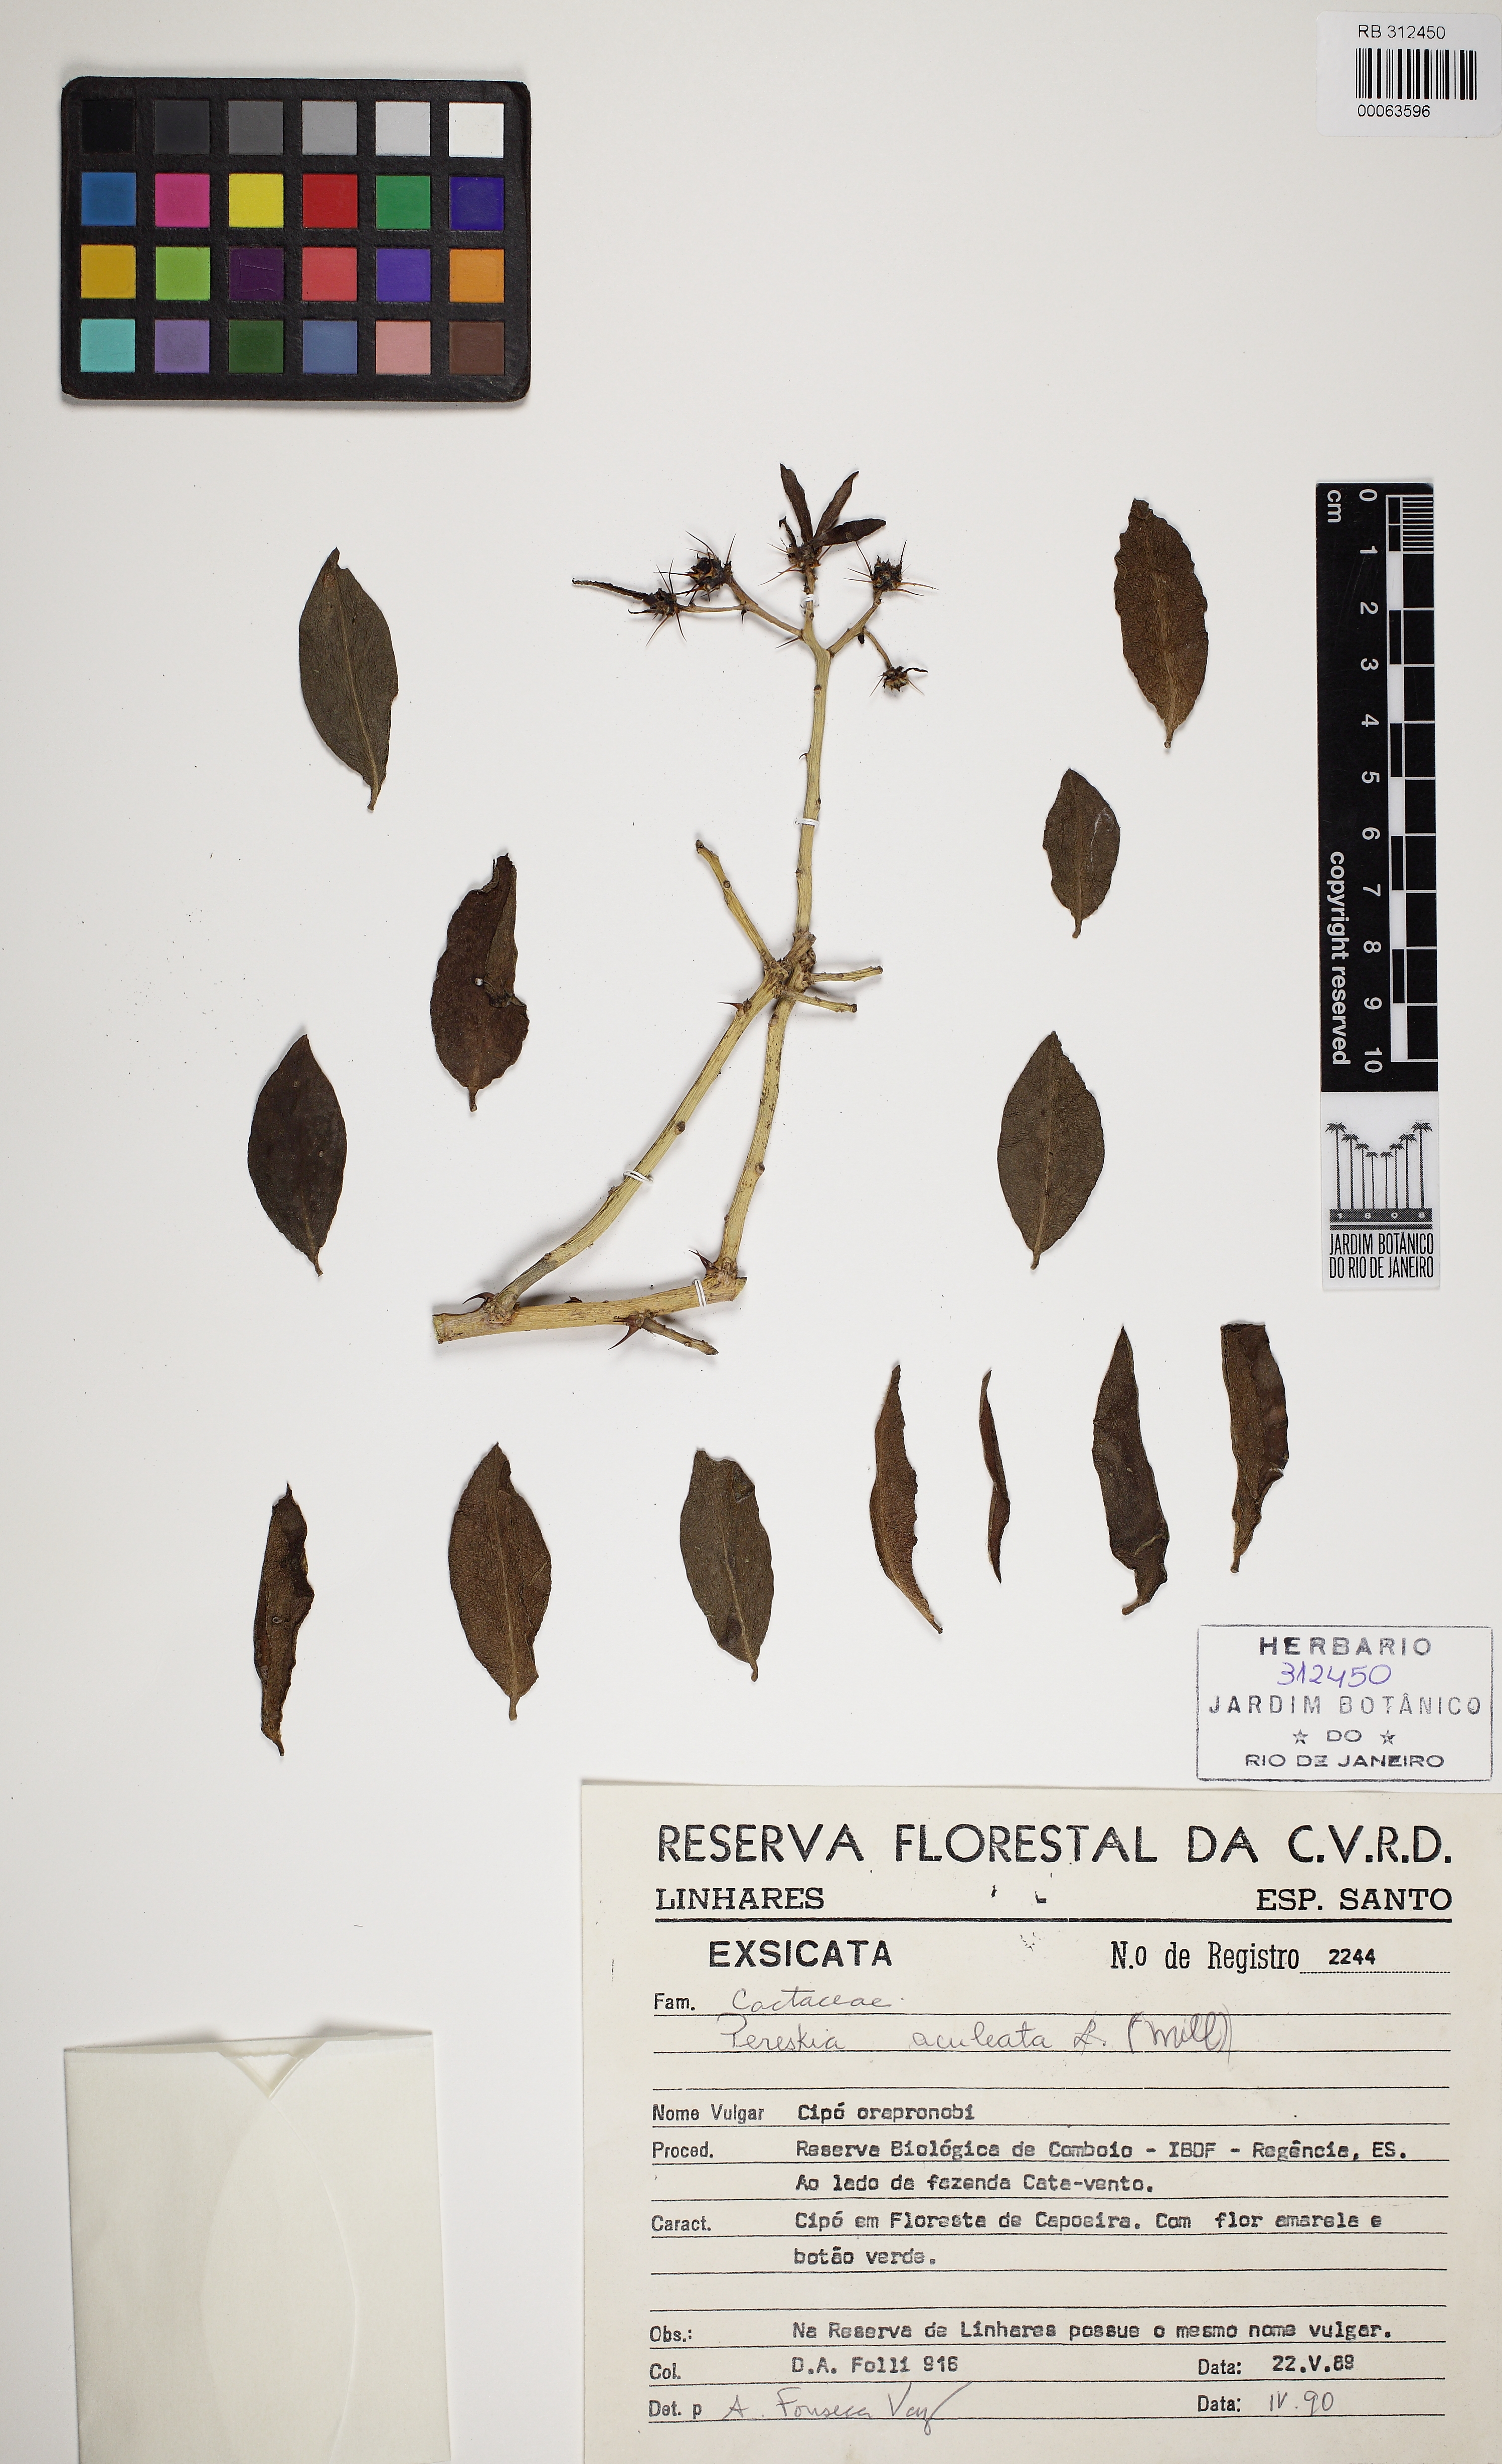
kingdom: Plantae
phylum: Tracheophyta
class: Magnoliopsida
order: Caryophyllales
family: Cactaceae
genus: Pereskia
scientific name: Pereskia aculeata
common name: Barbados gooseberry
